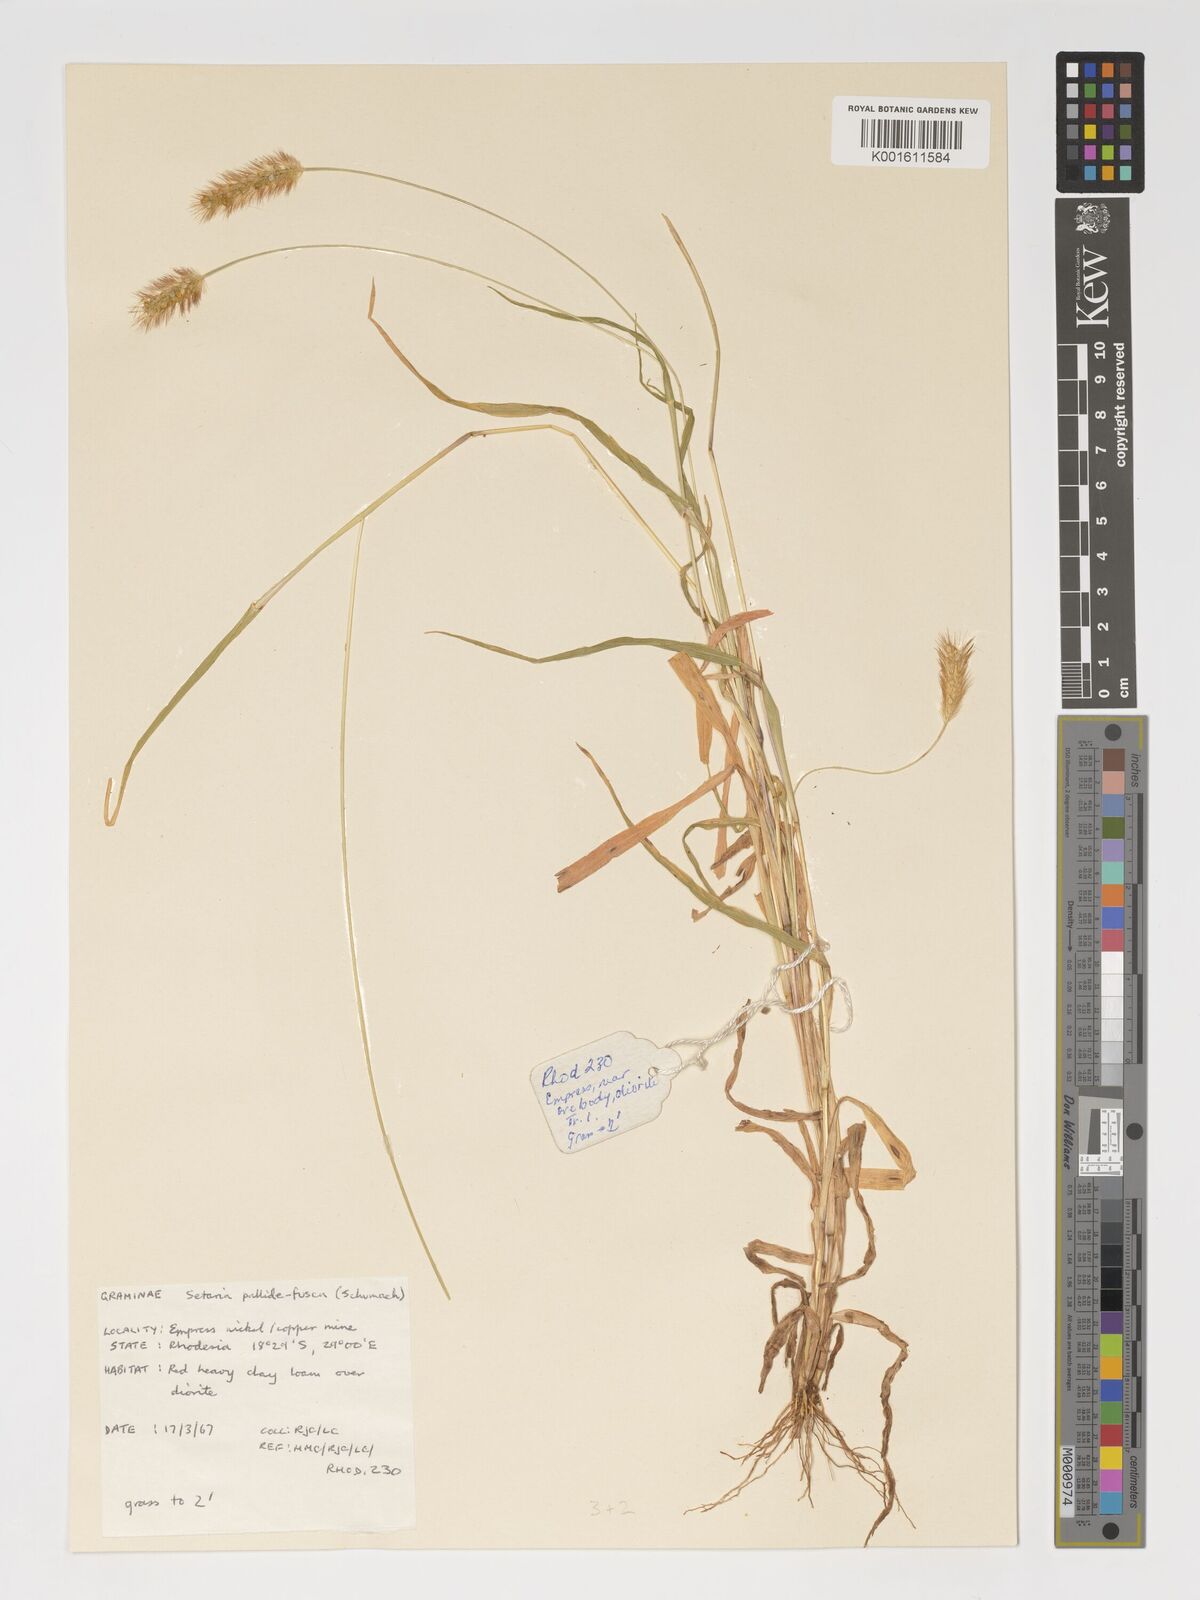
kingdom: Plantae
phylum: Tracheophyta
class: Liliopsida
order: Poales
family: Poaceae
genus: Setaria
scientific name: Setaria pumila
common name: Yellow bristle-grass
